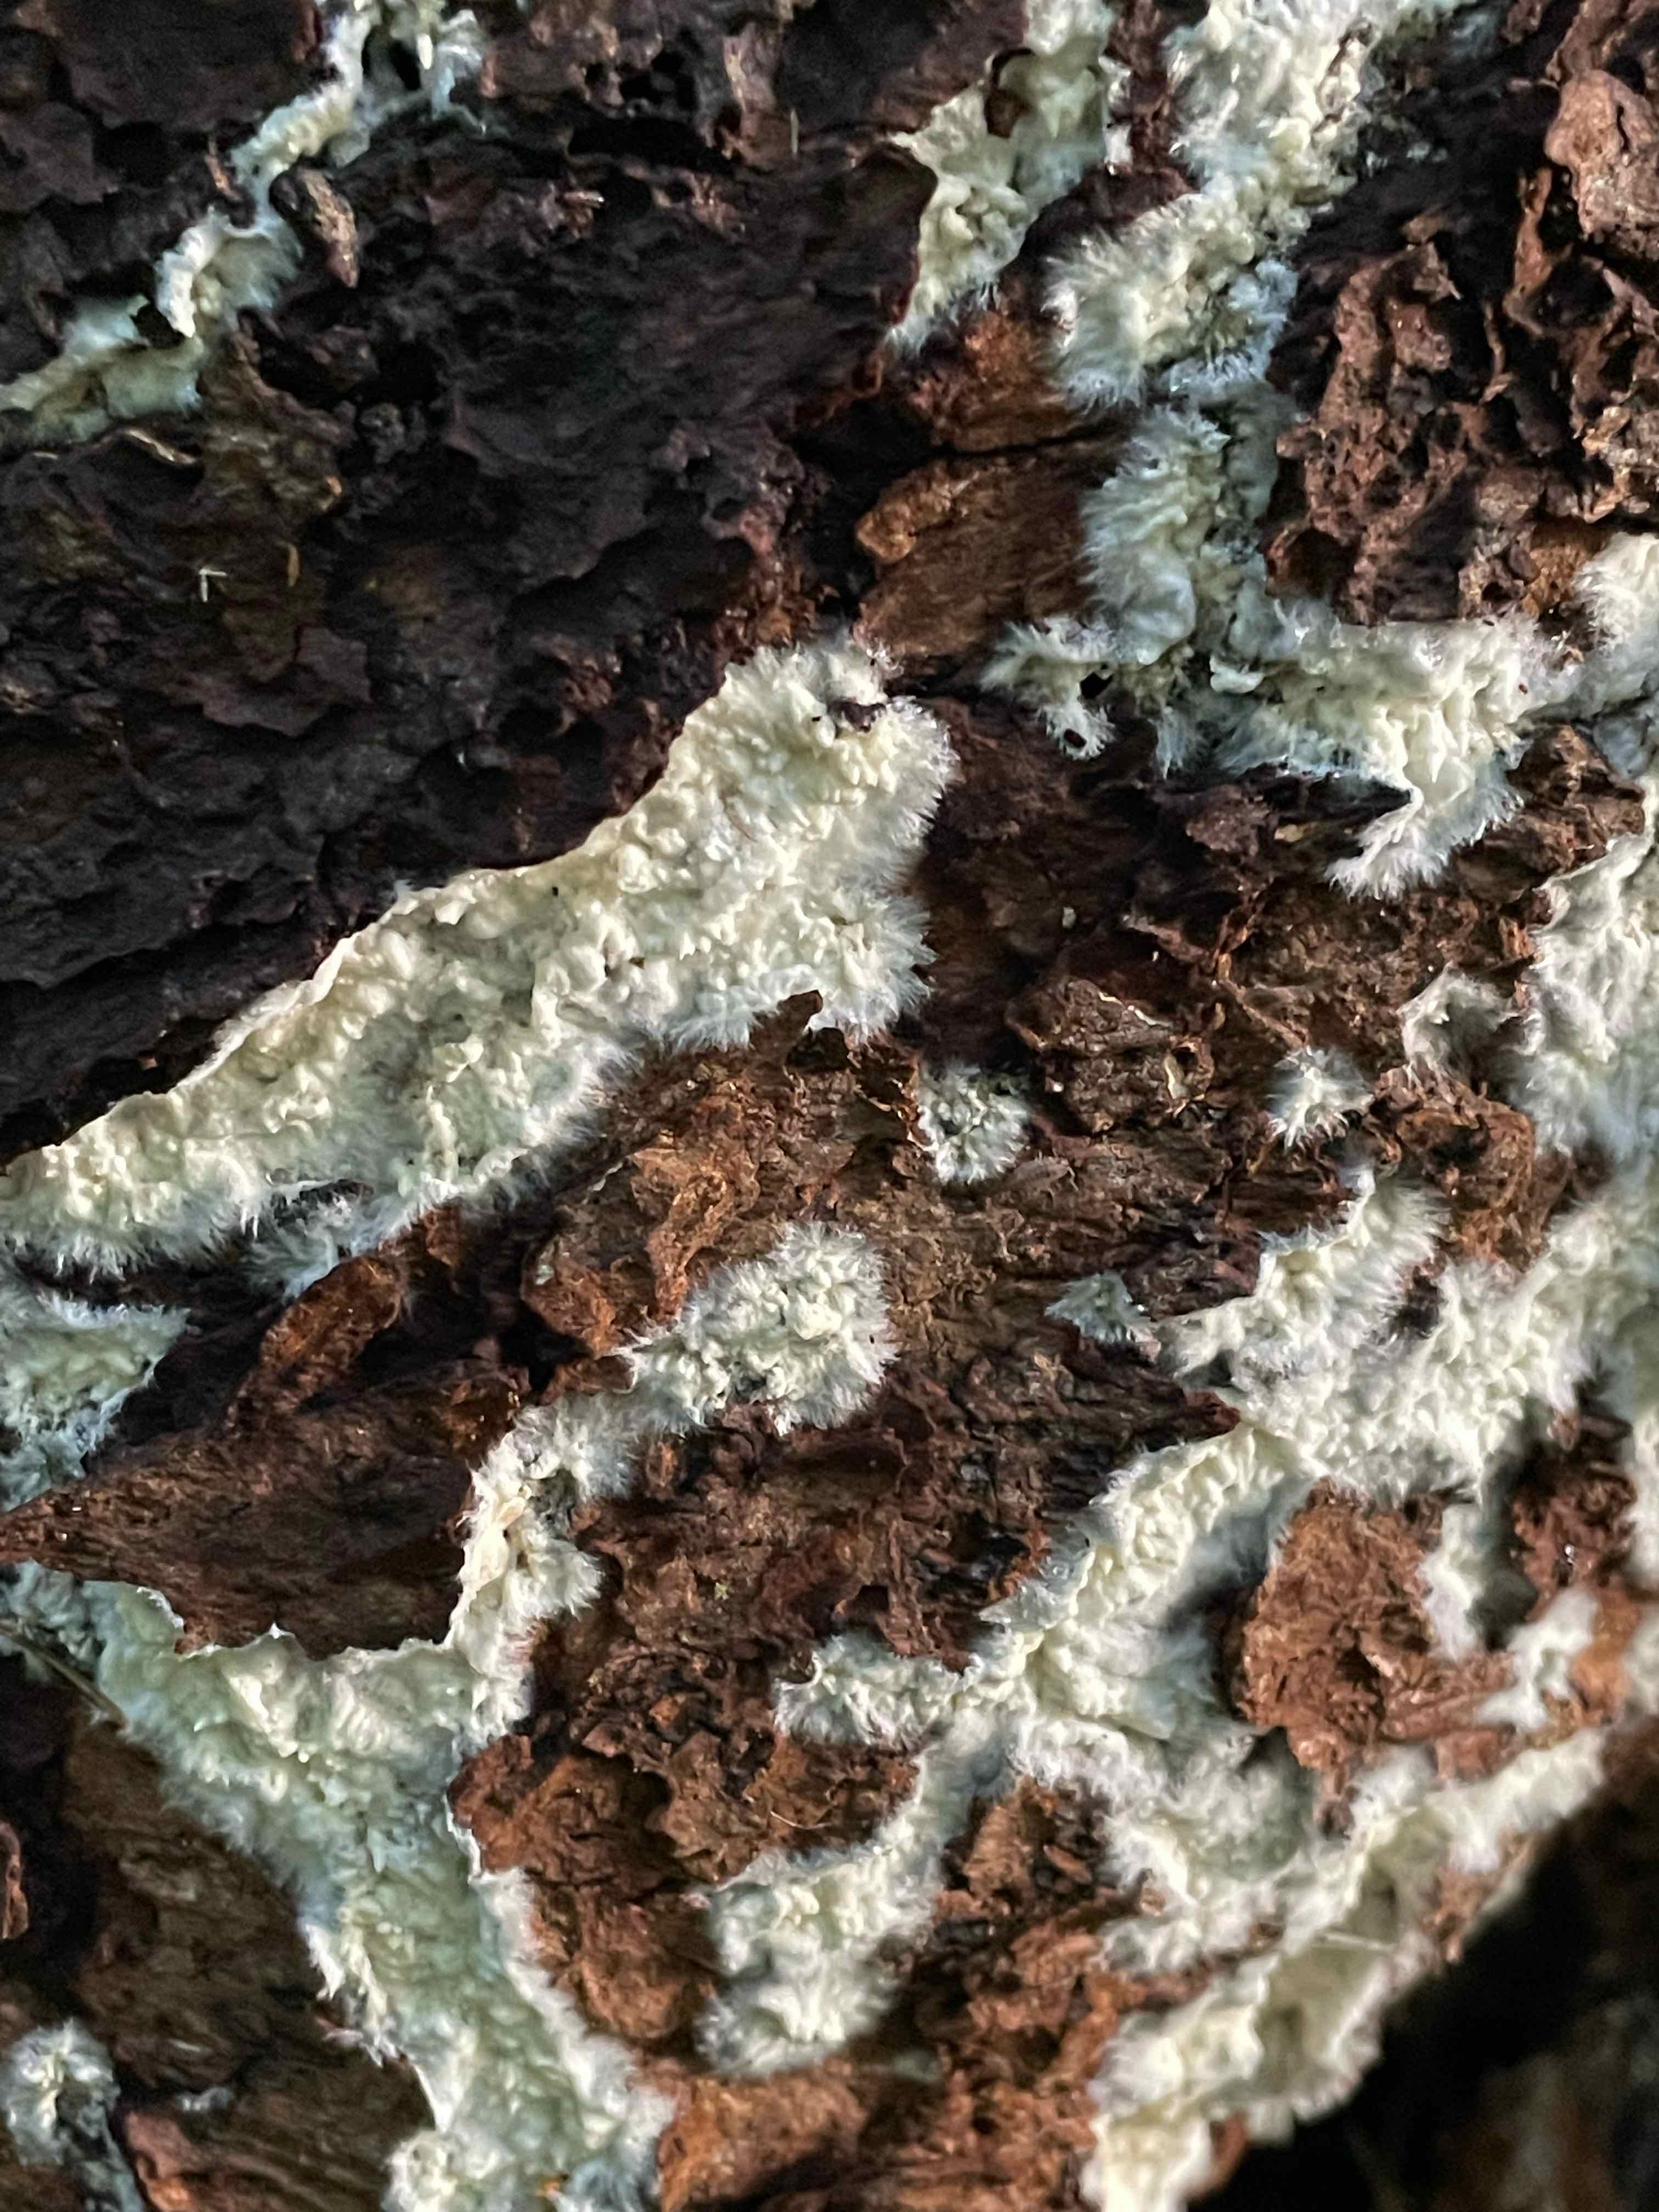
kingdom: Fungi
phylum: Basidiomycota
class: Agaricomycetes
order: Corticiales
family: Corticiaceae
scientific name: Corticiaceae
